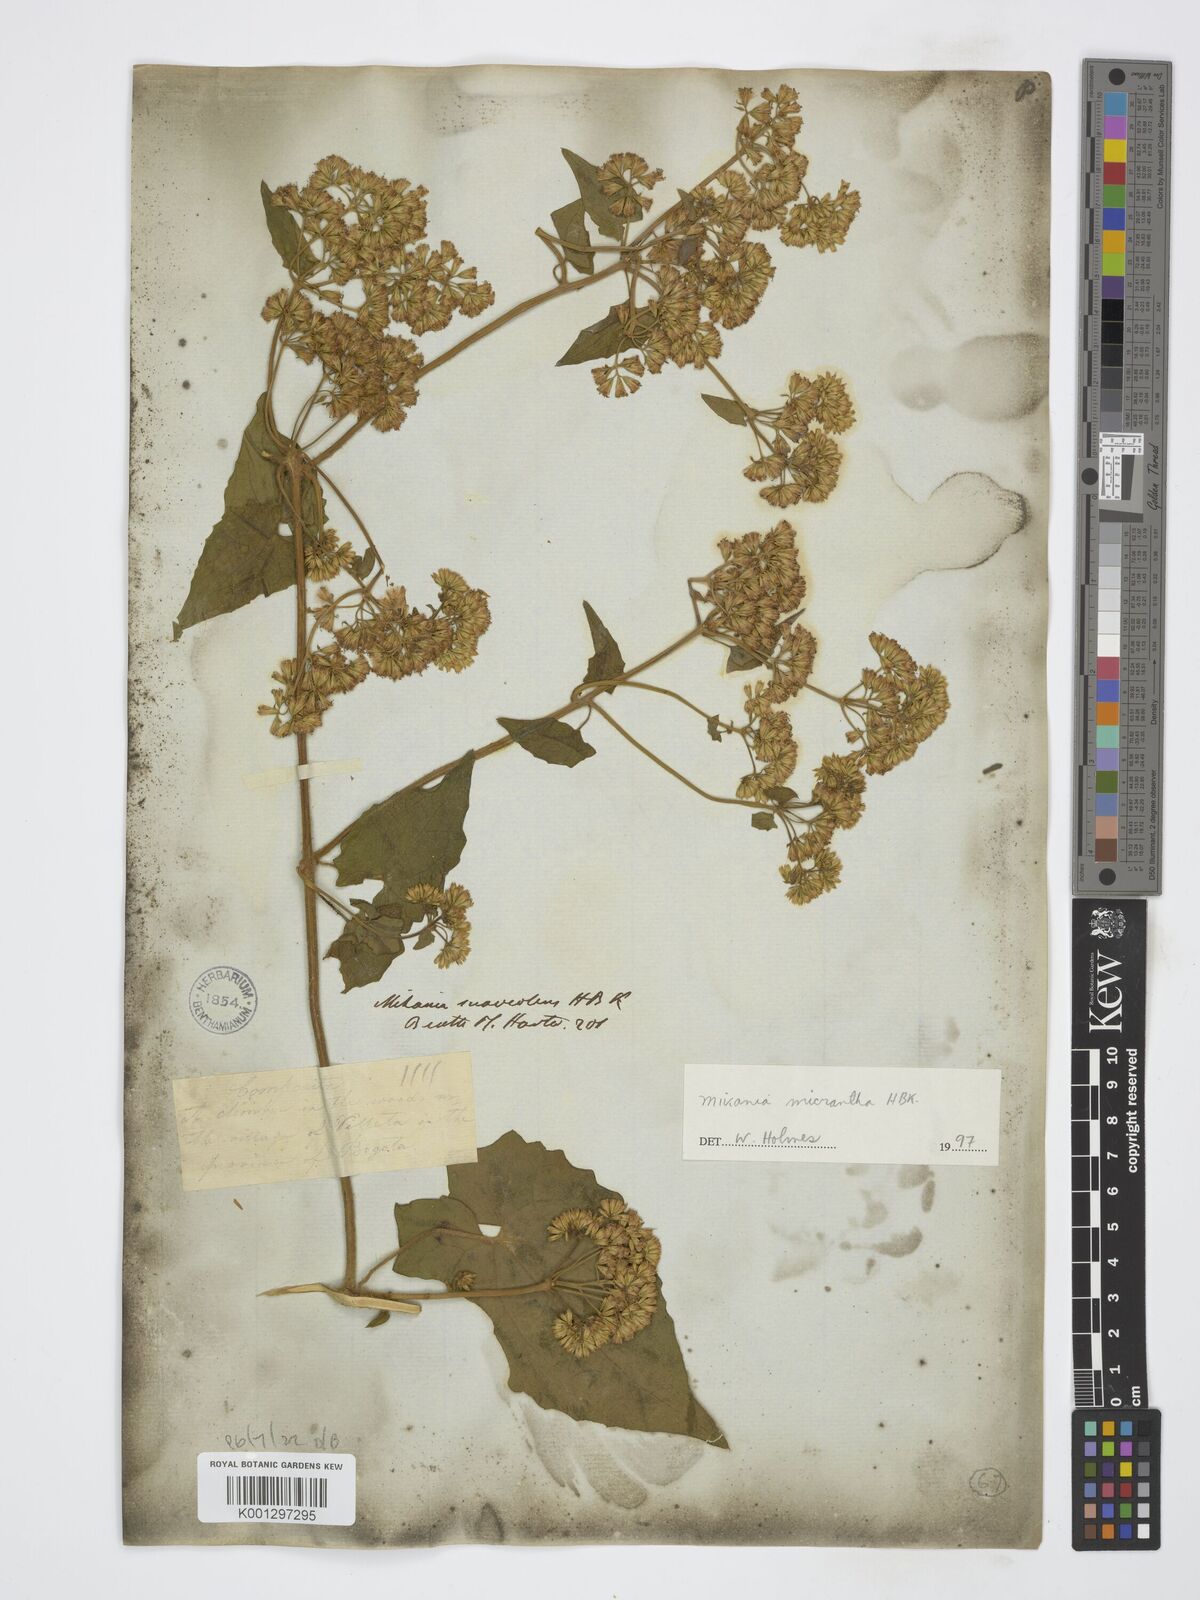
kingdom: Plantae
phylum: Tracheophyta
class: Magnoliopsida
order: Asterales
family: Asteraceae
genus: Mikania
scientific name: Mikania micrantha
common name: Mile-a-minute
